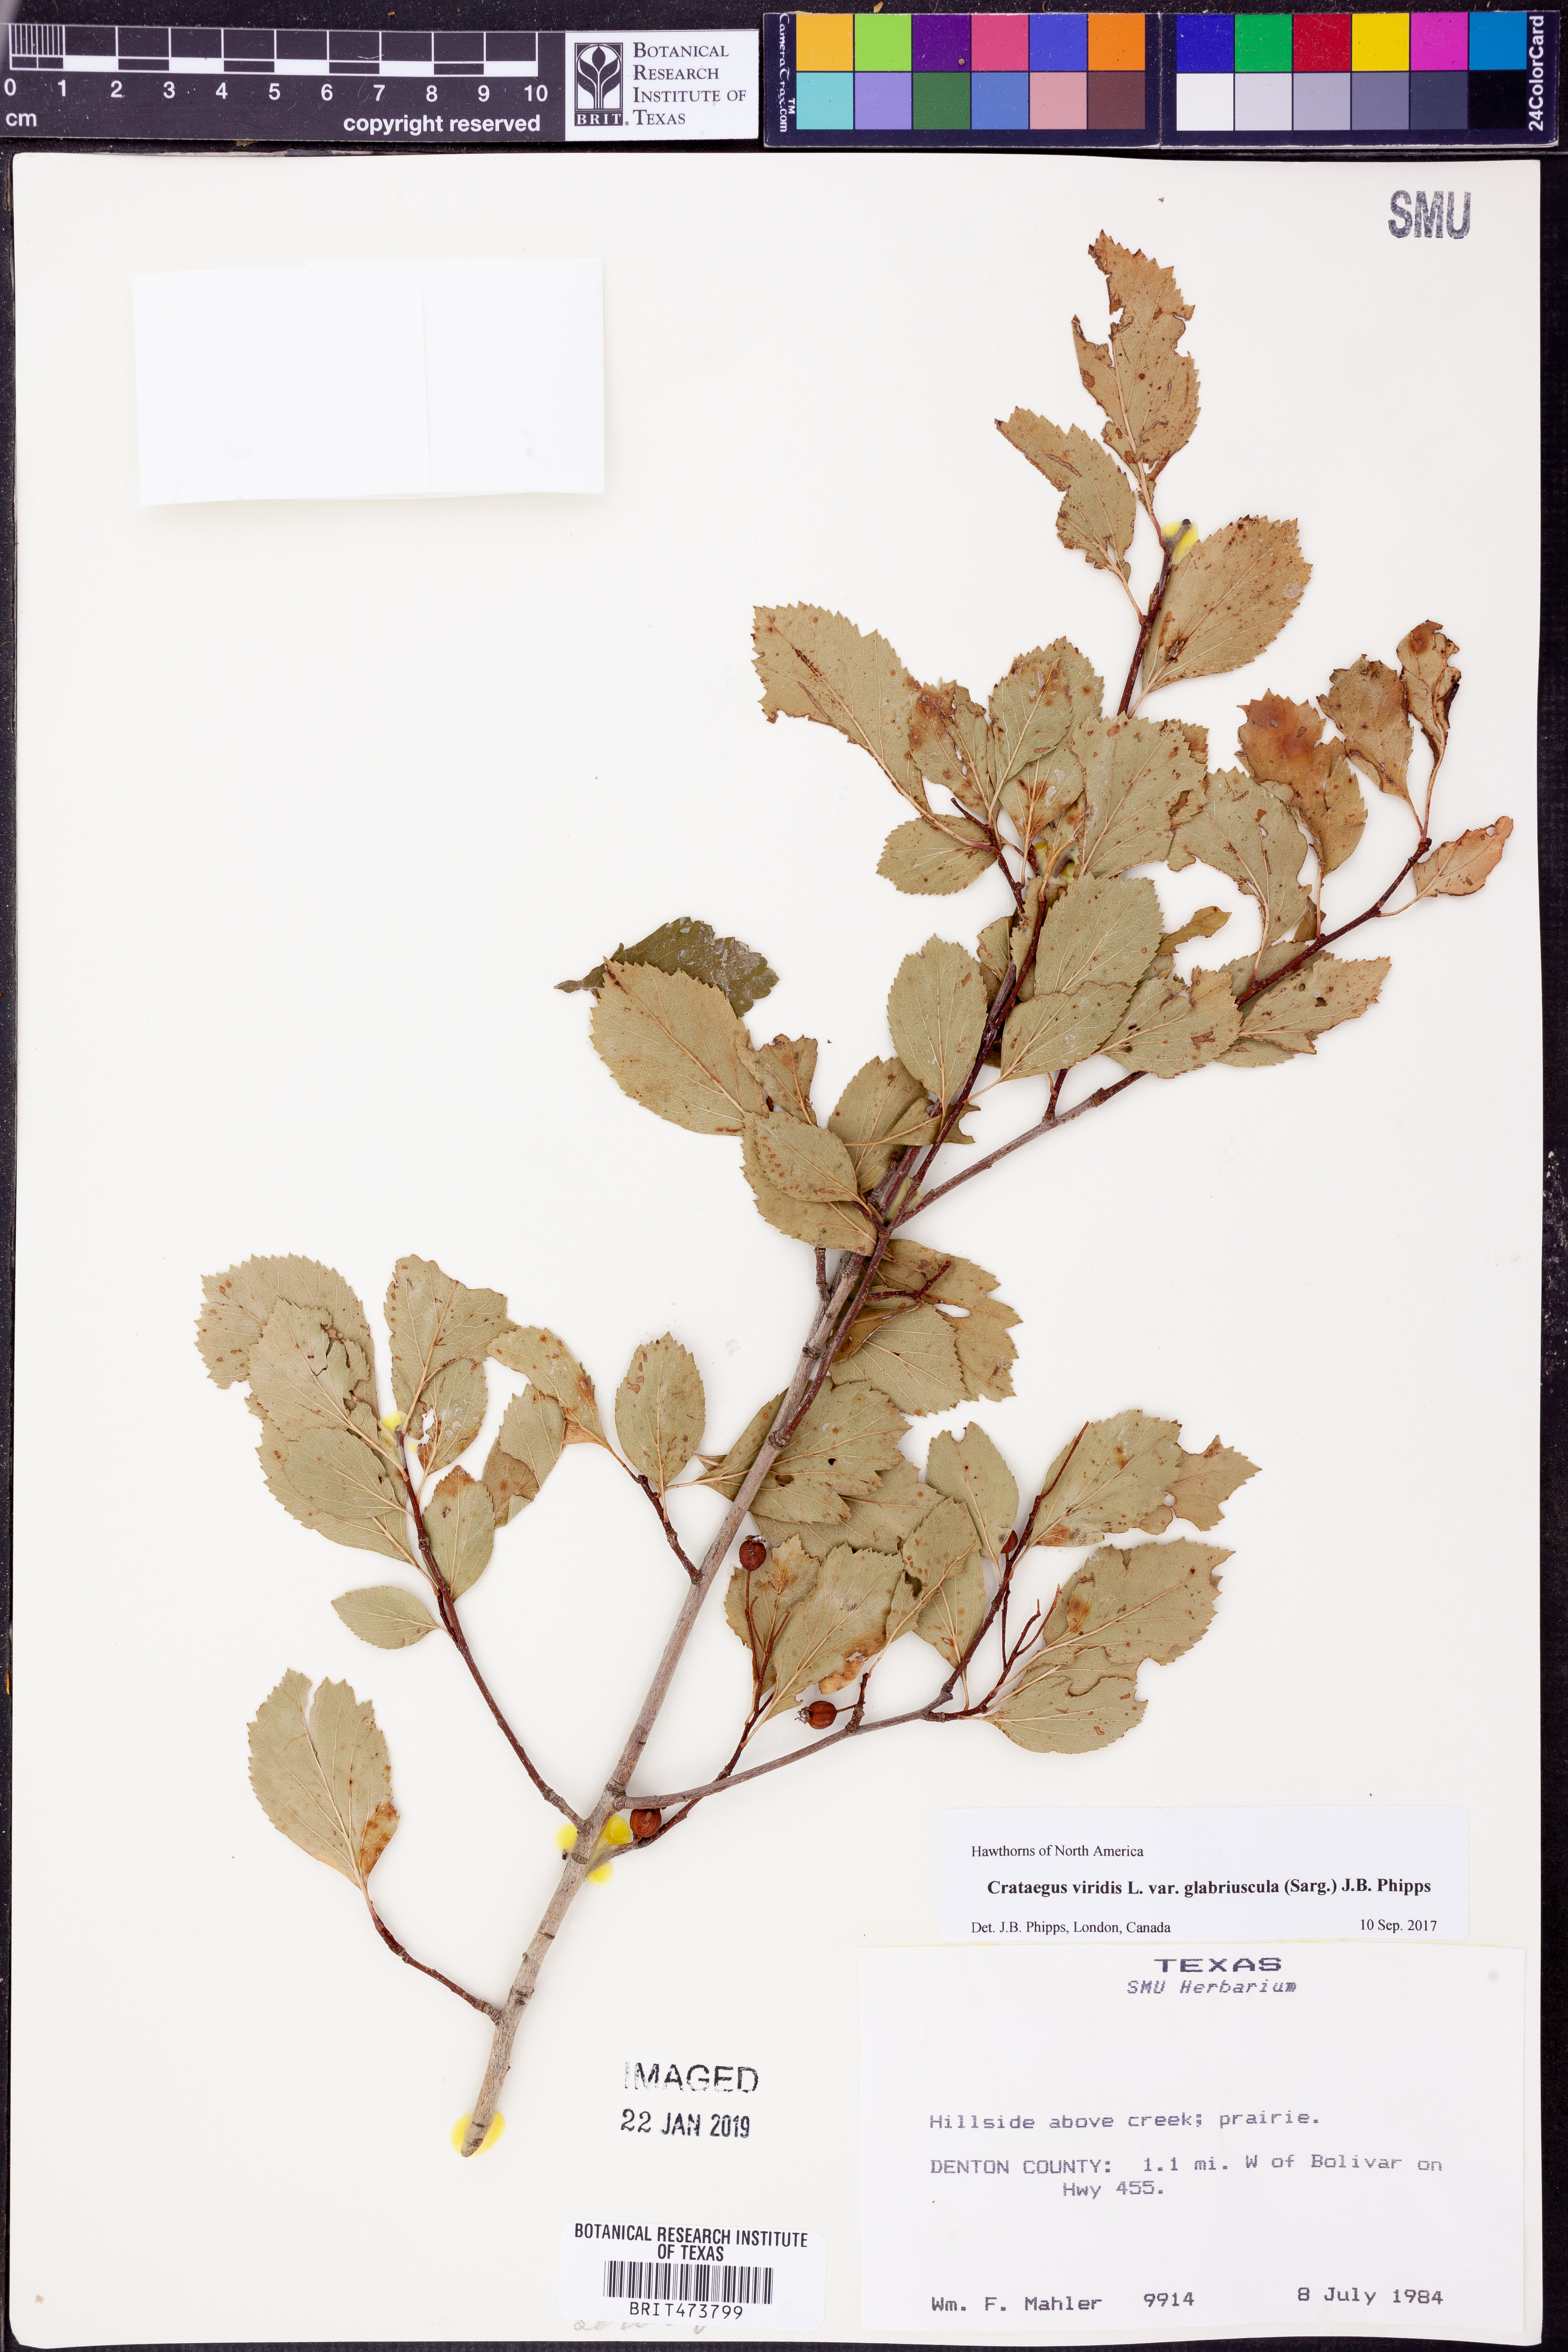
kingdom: Plantae
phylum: Tracheophyta
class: Magnoliopsida
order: Rosales
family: Rosaceae
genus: Crataegus
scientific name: Crataegus viridis
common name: Southernthorn
